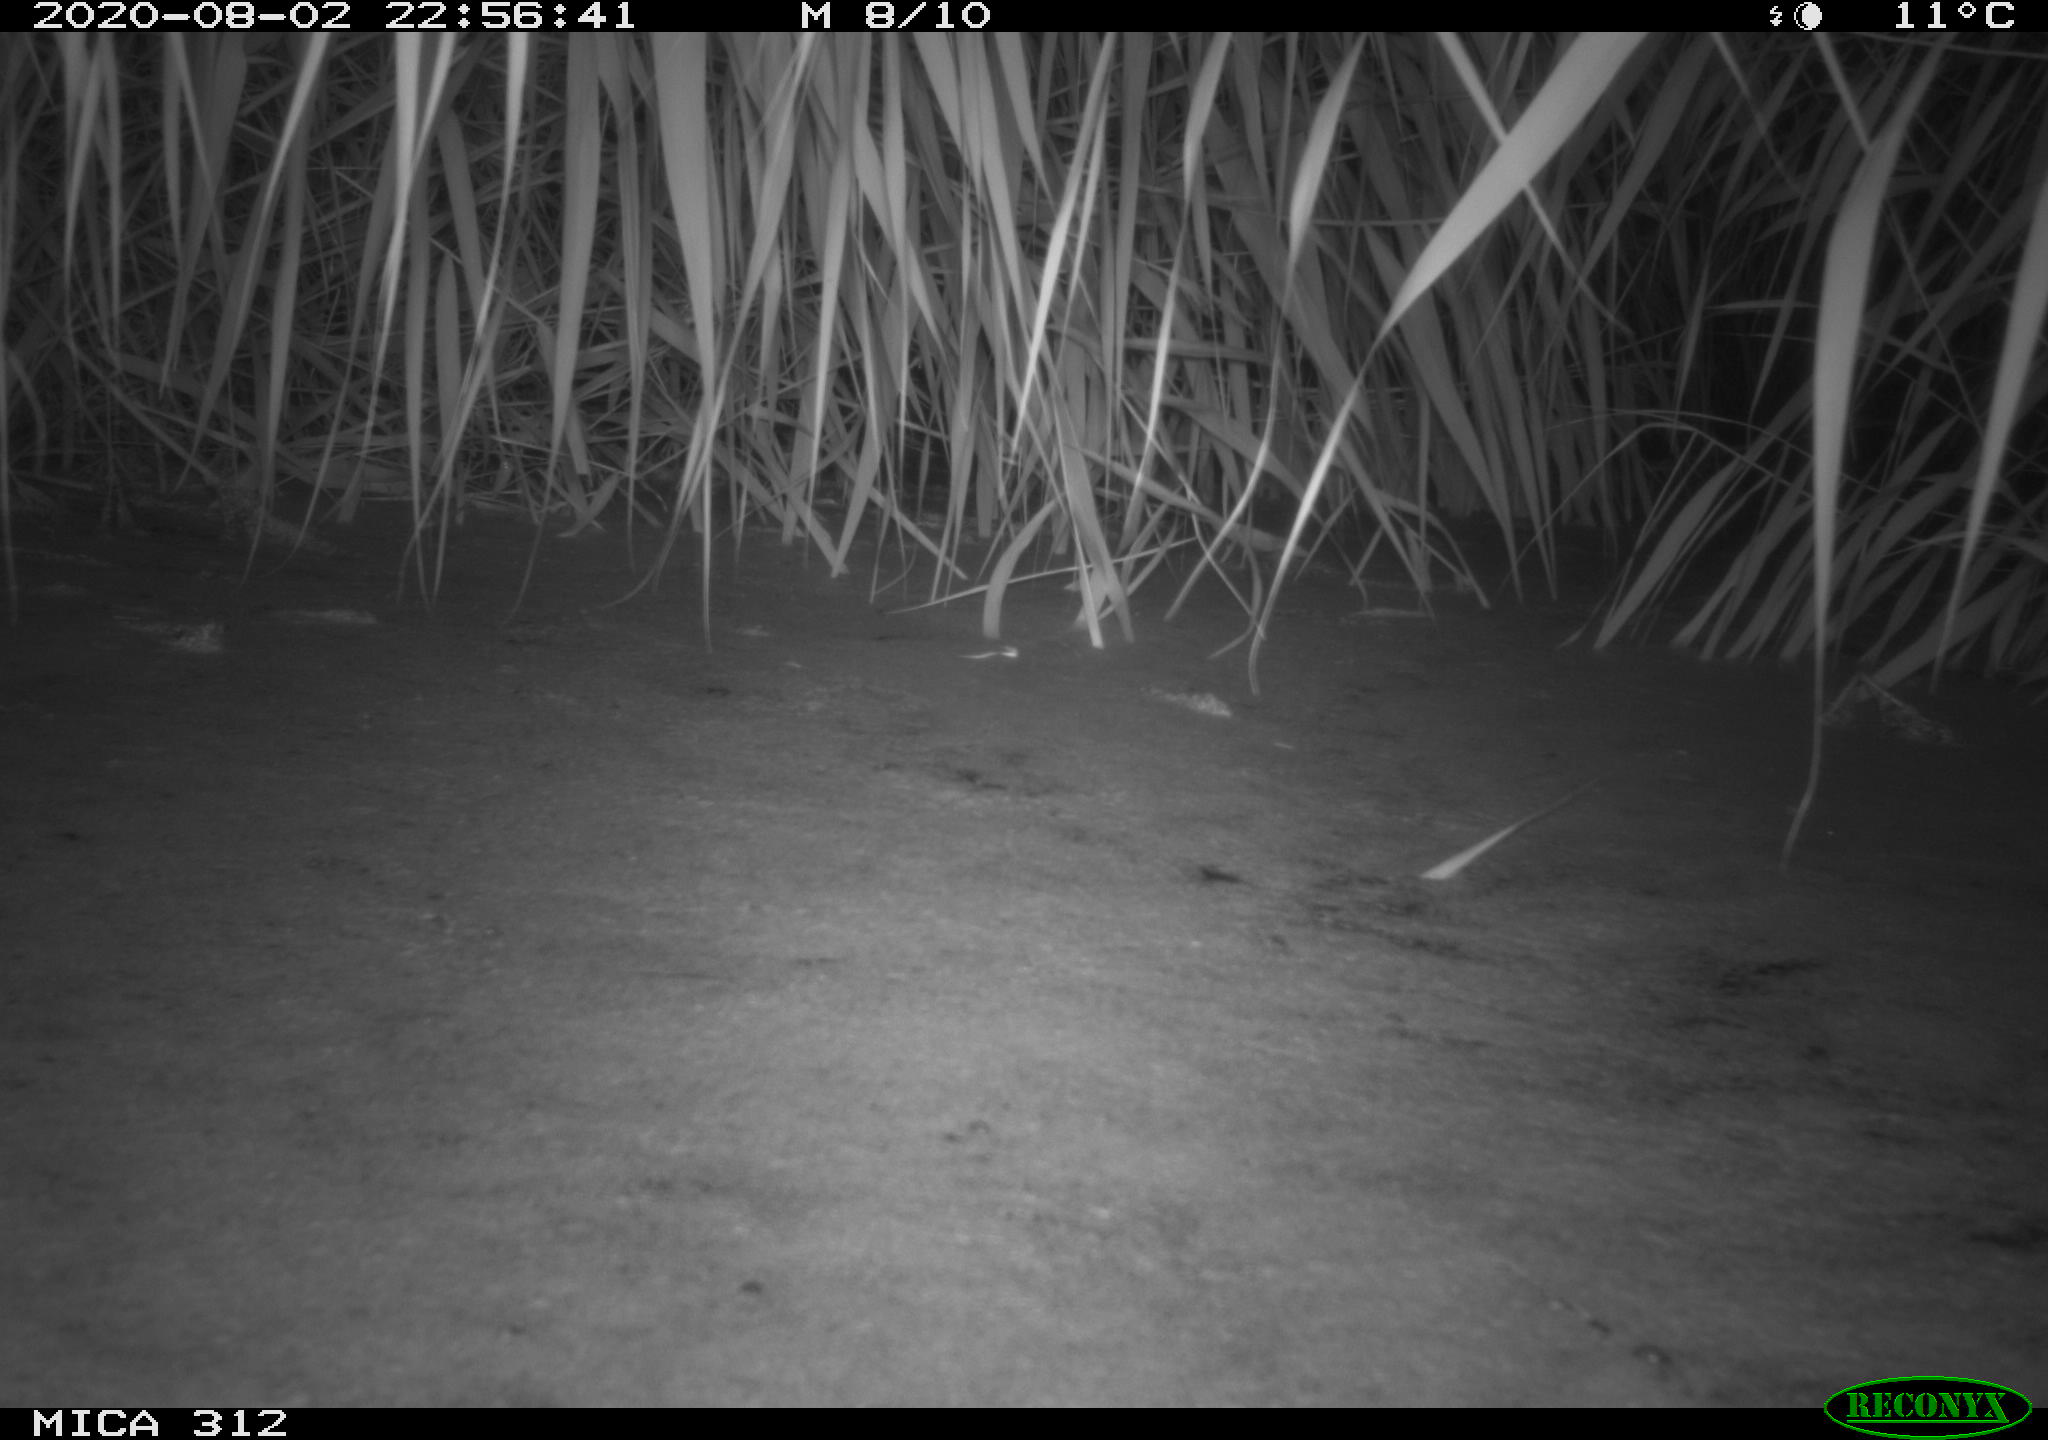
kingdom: Animalia
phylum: Chordata
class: Mammalia
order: Rodentia
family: Muridae
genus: Rattus
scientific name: Rattus norvegicus
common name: Brown rat
